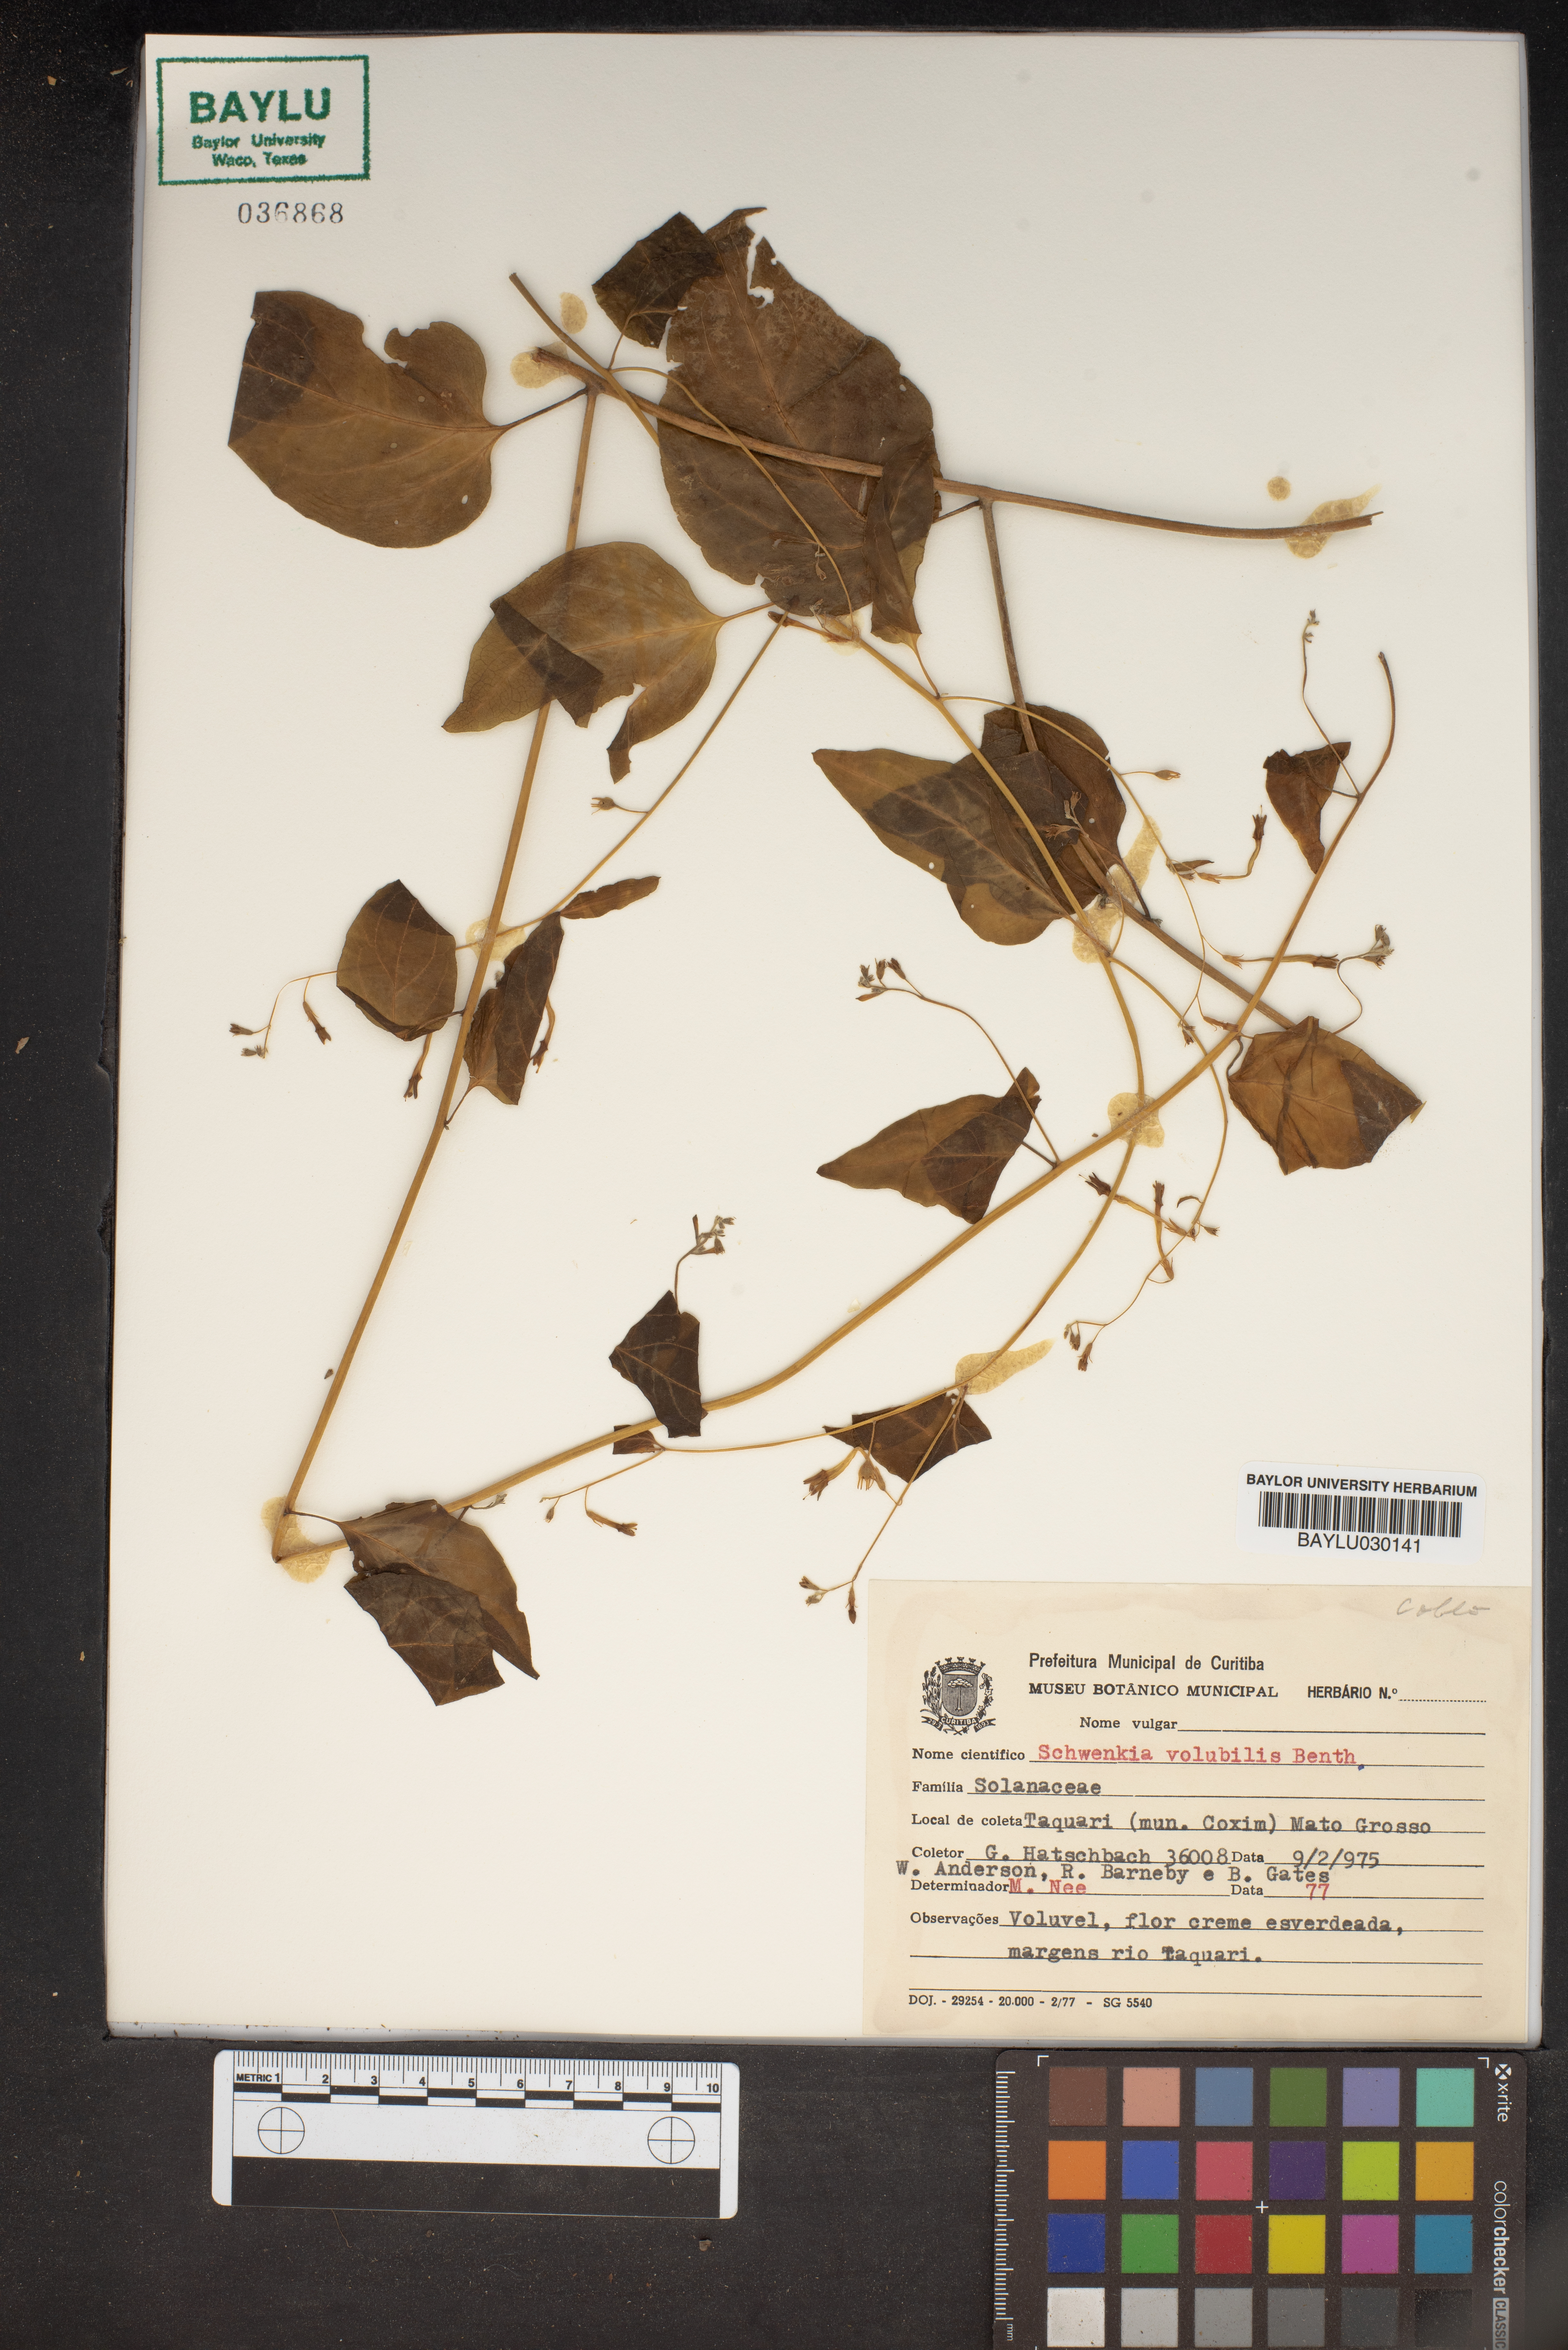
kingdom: Plantae
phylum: Tracheophyta
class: Magnoliopsida
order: Solanales
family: Solanaceae
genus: Schwenckia
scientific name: Schwenckia volubilis
